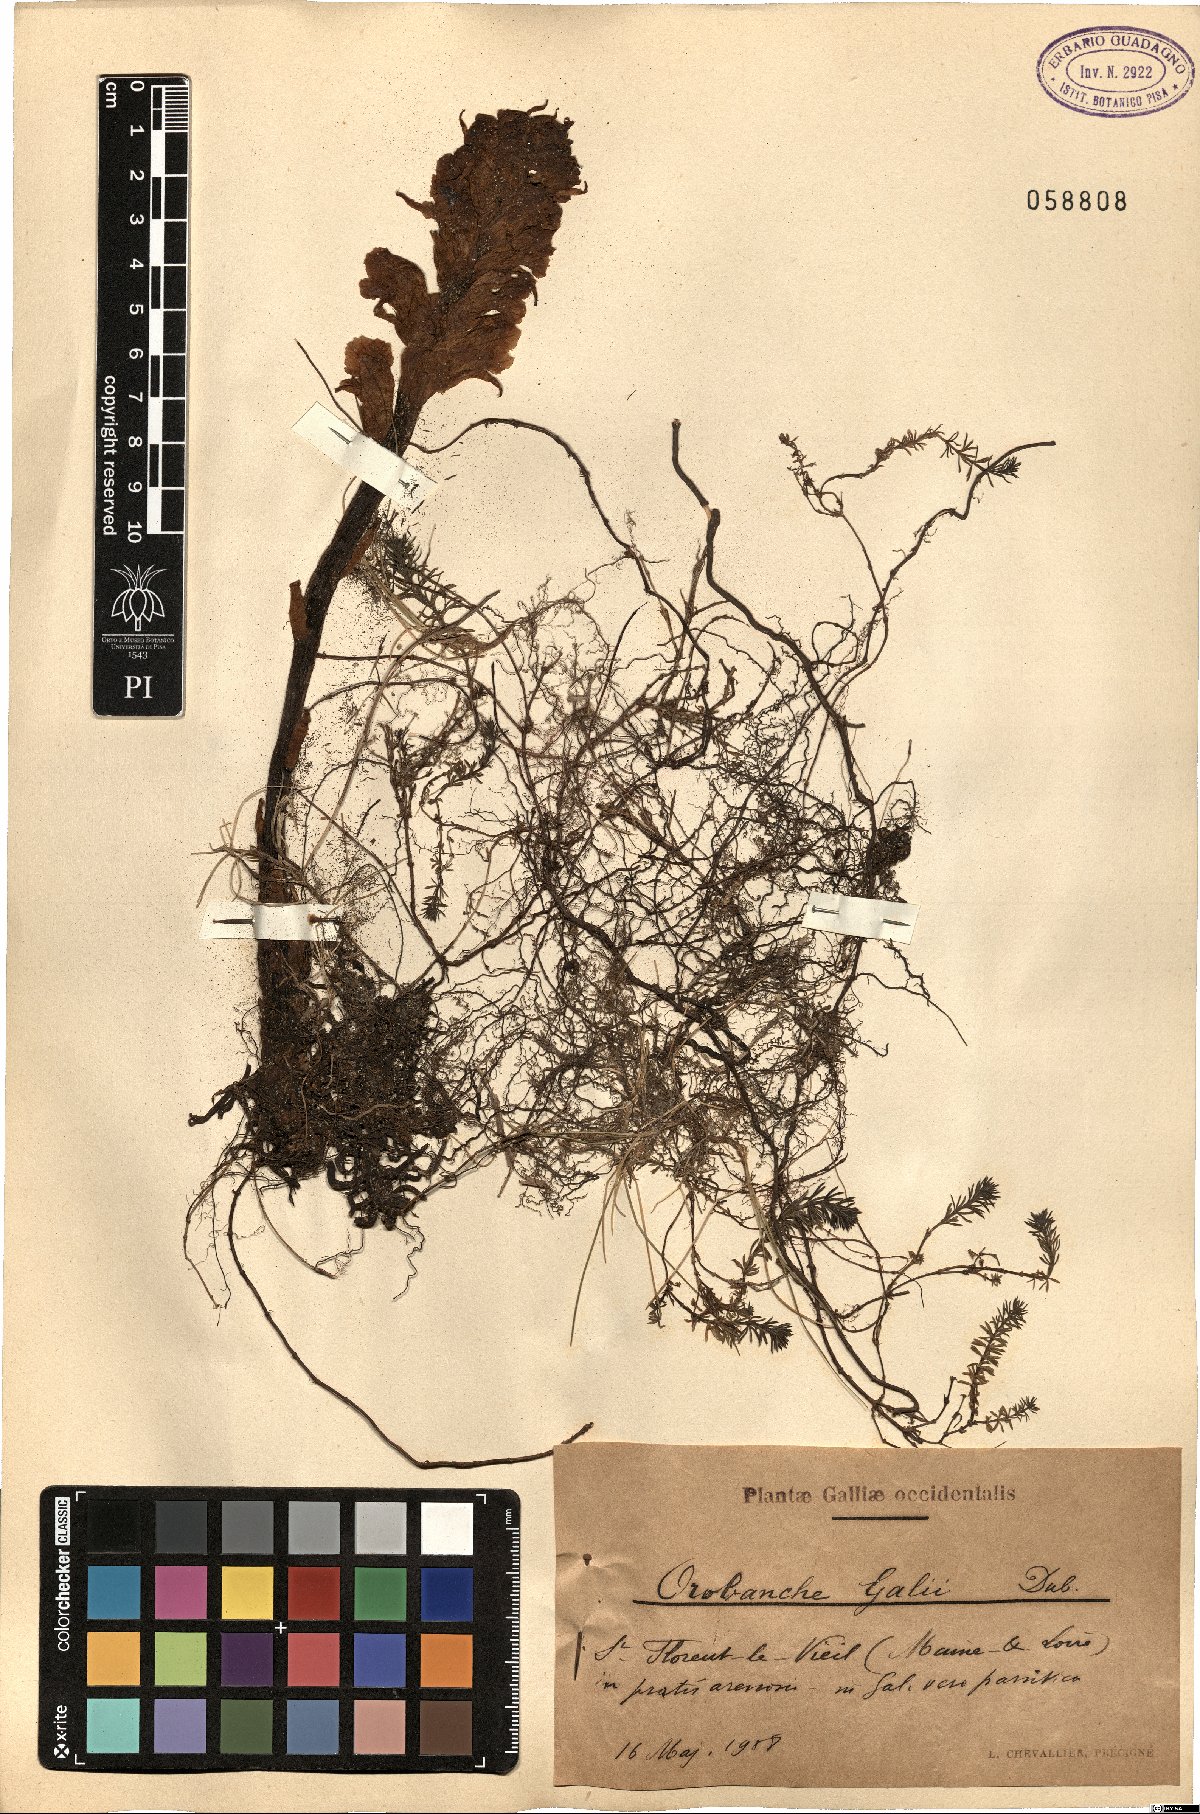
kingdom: Plantae
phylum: Tracheophyta
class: Magnoliopsida
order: Lamiales
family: Orobanchaceae
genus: Orobanche
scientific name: Orobanche caryophyllacea
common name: Bedstraw broomrape
